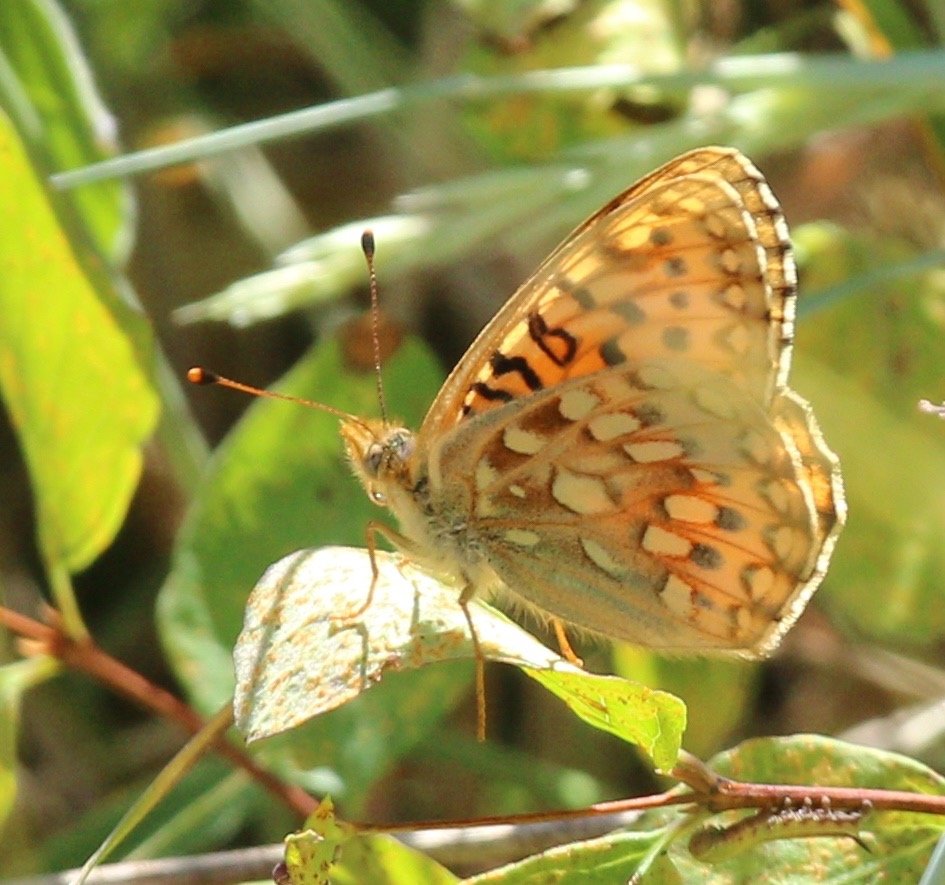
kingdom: Animalia
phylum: Arthropoda
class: Insecta
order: Lepidoptera
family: Nymphalidae
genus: Speyeria
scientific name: Speyeria egleis
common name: Great Basin Fritillary
